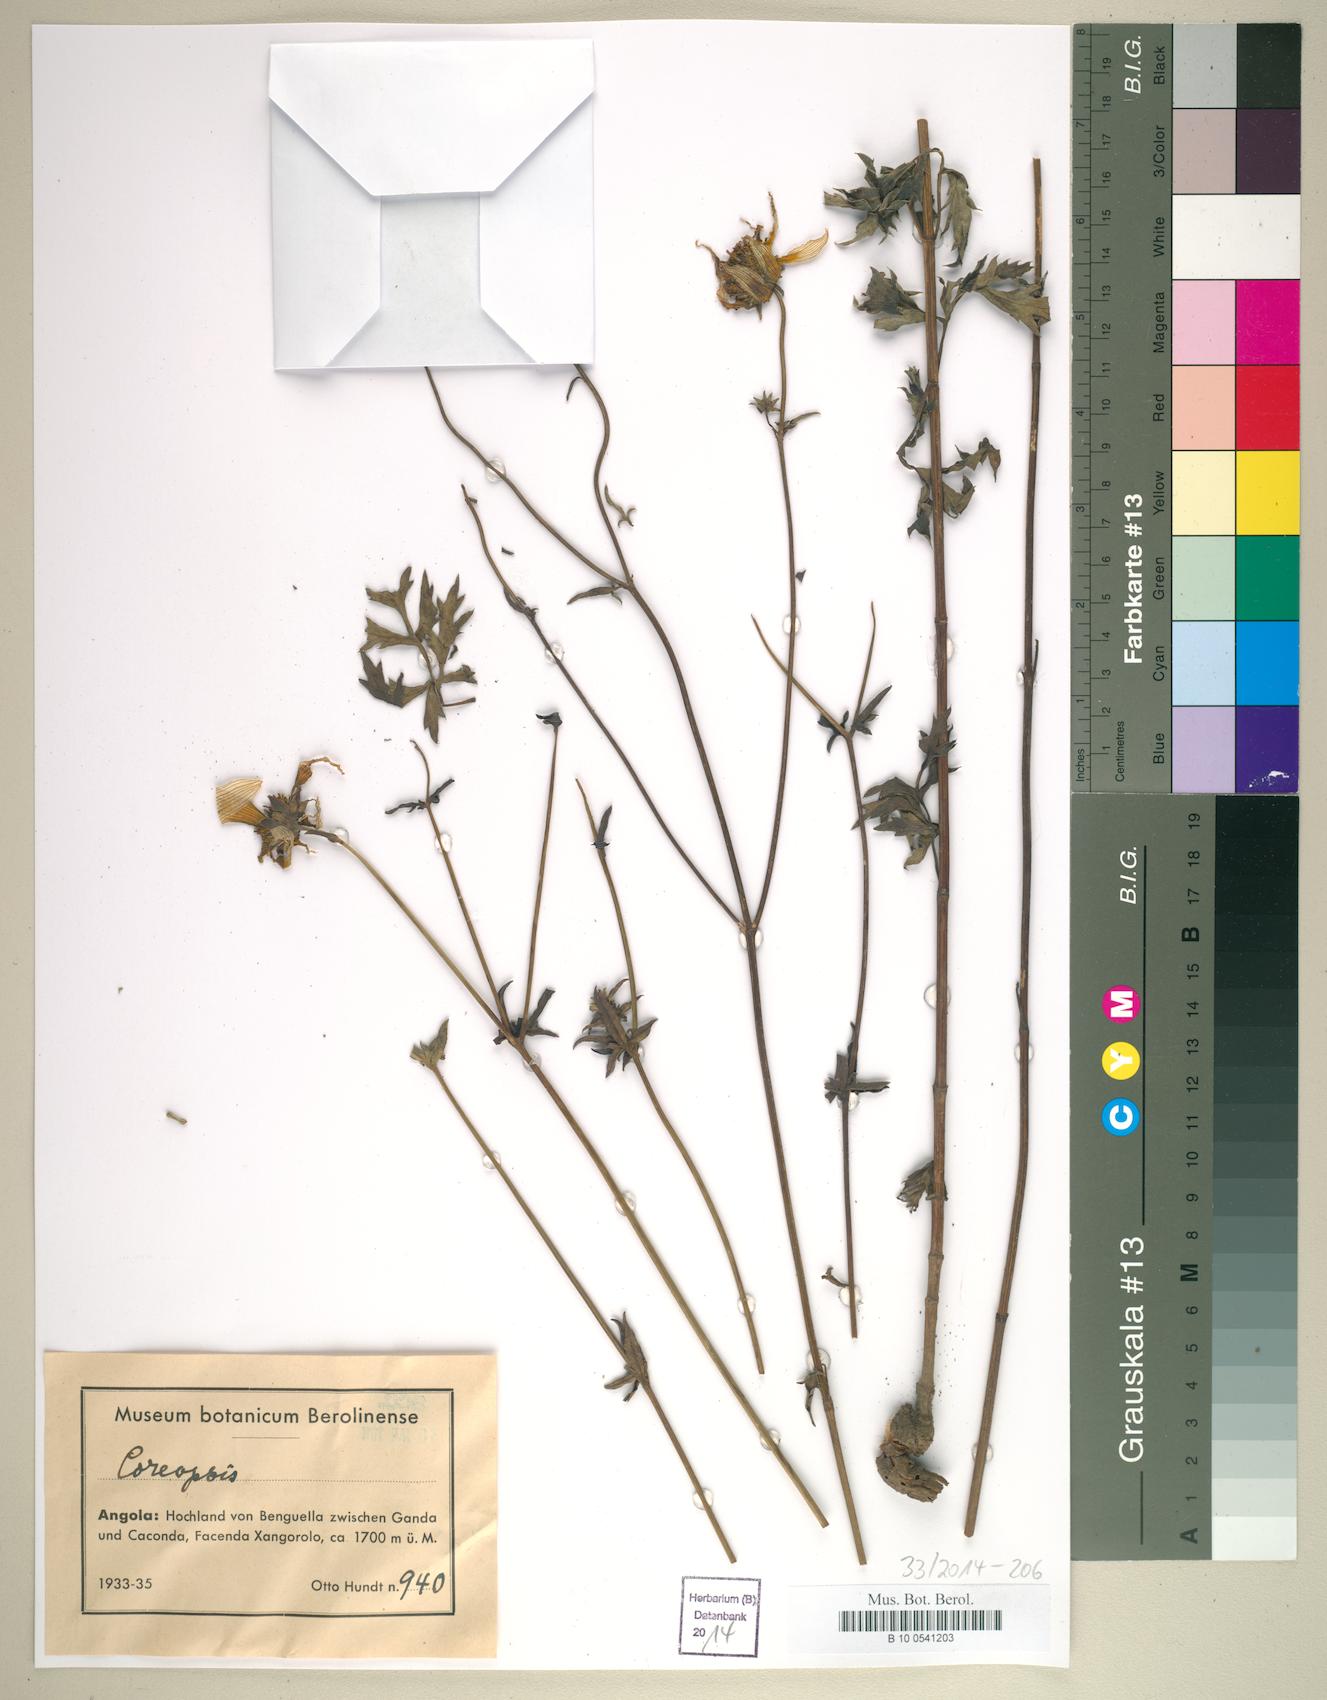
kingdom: Plantae
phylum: Tracheophyta
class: Magnoliopsida
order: Asterales
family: Asteraceae
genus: Coreopsis
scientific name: Coreopsis
